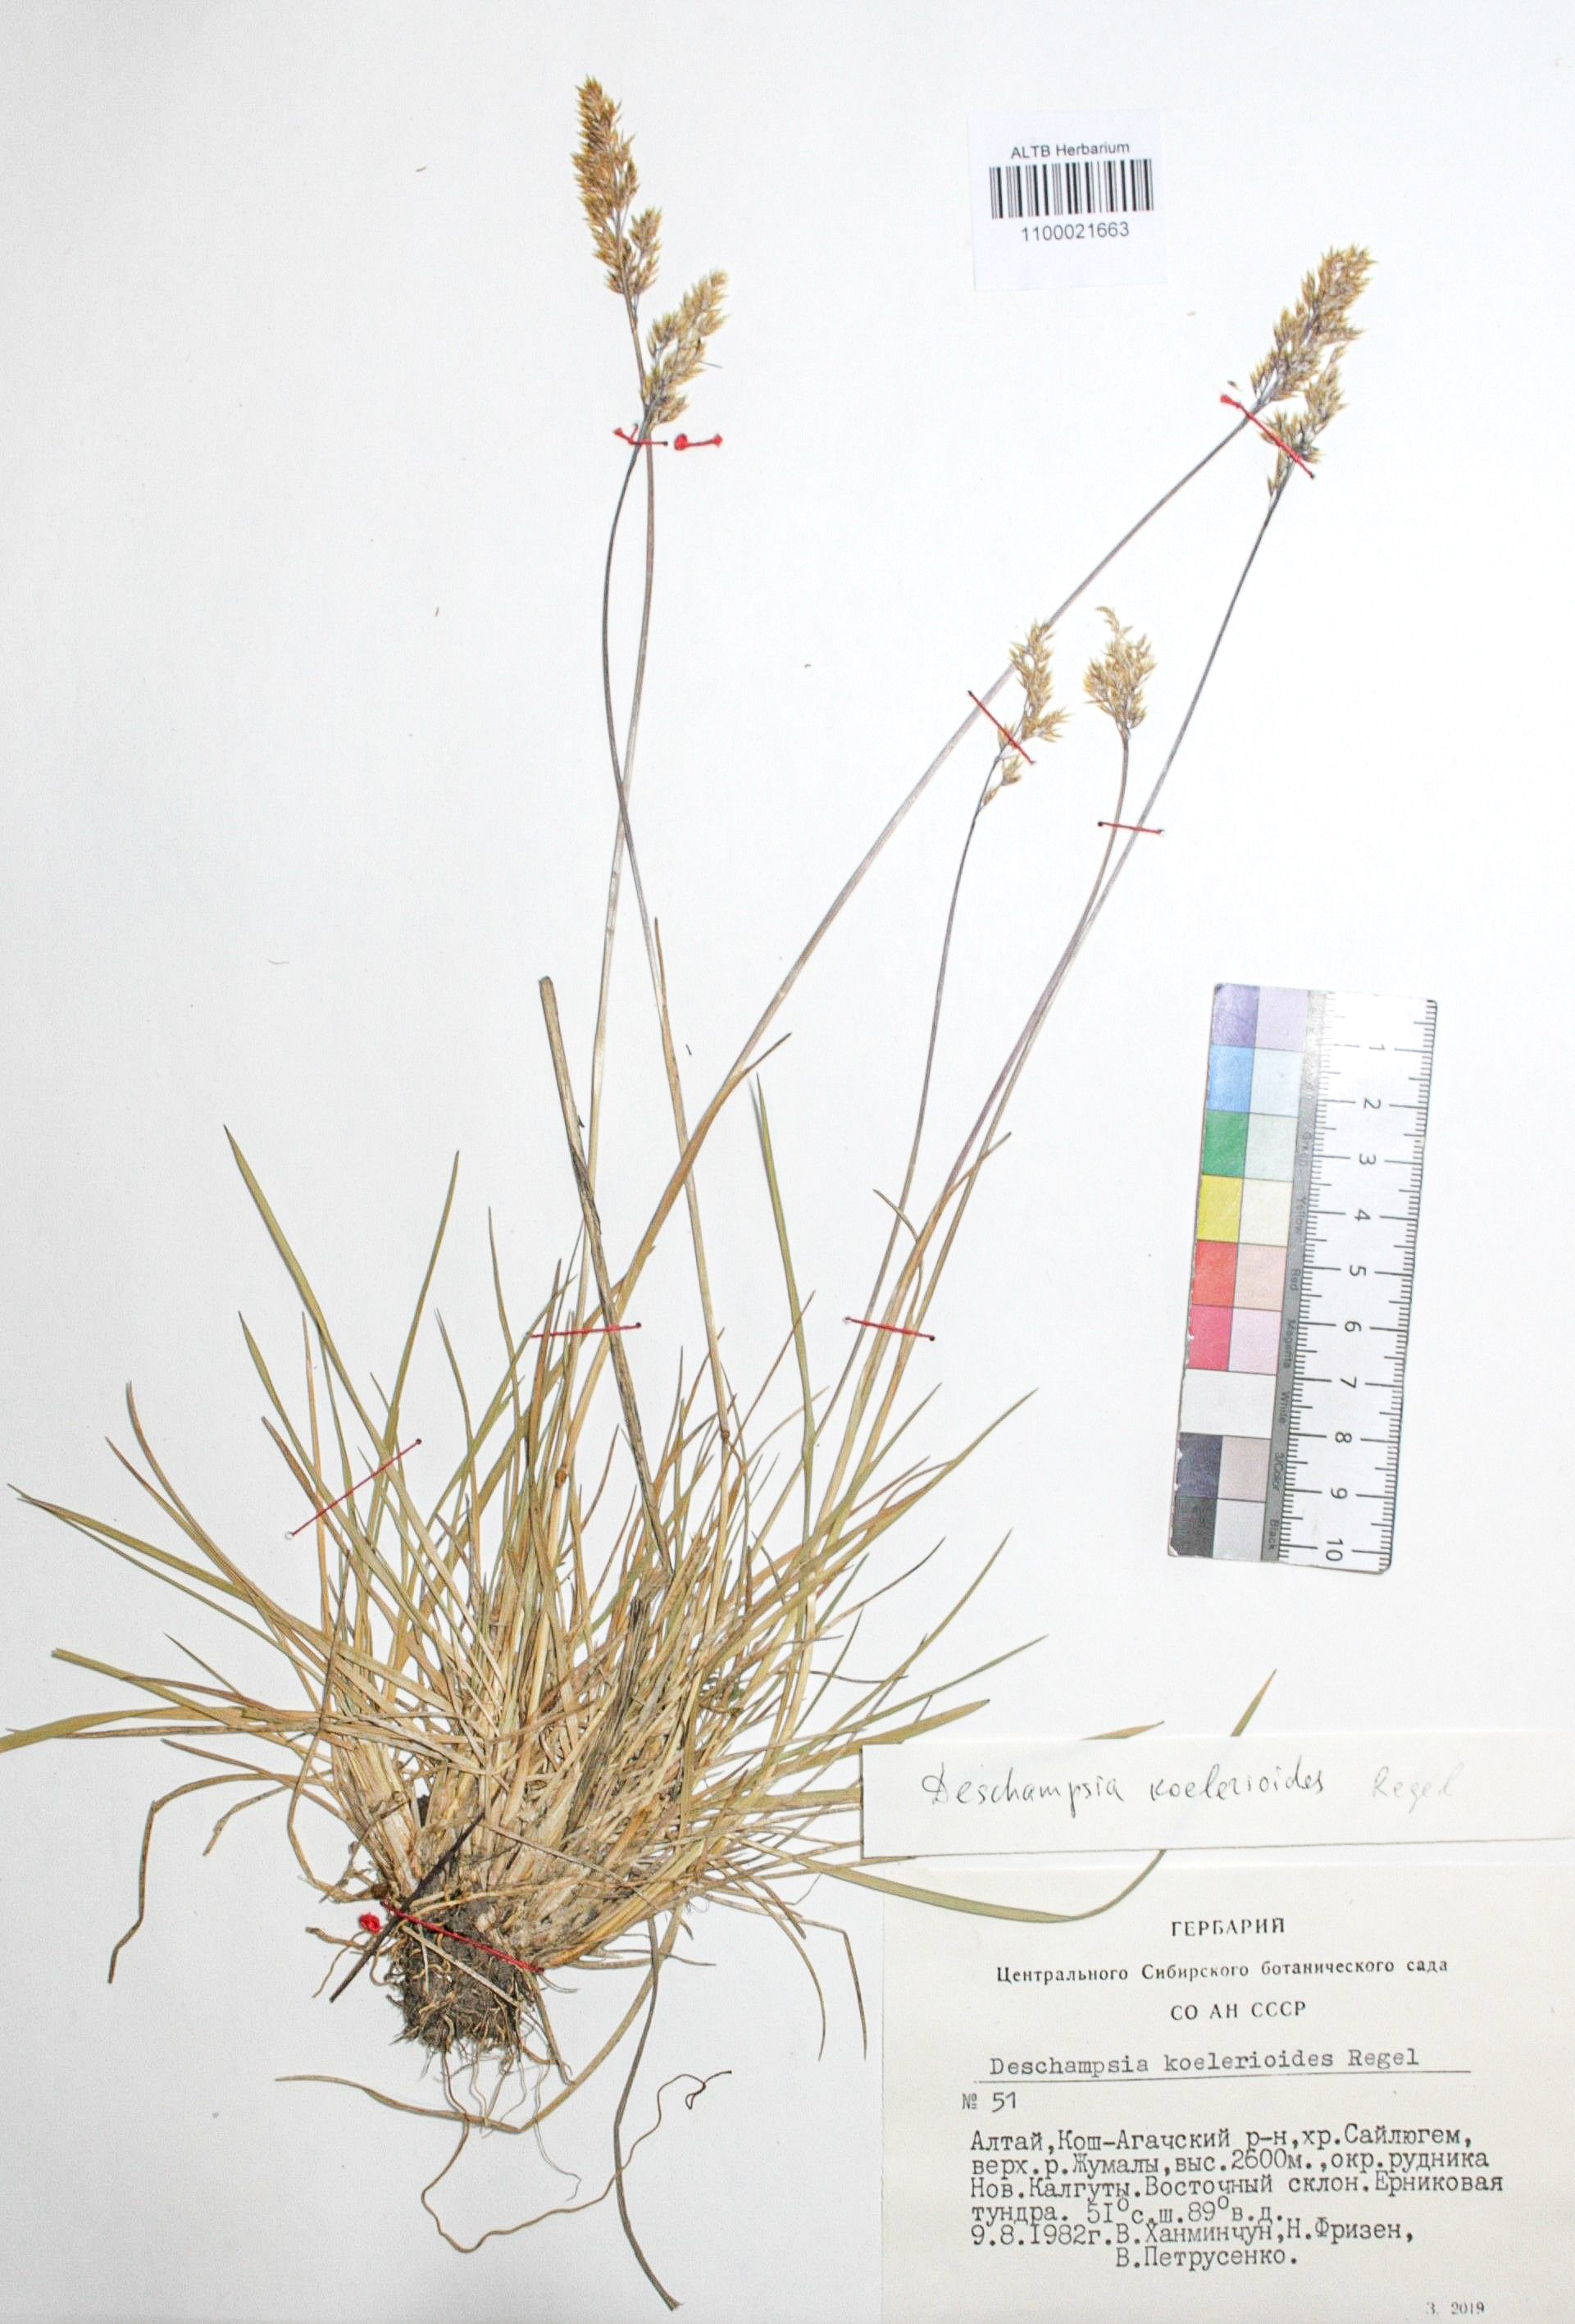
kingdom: Plantae
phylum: Tracheophyta
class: Liliopsida
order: Poales
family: Poaceae
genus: Deschampsia
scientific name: Deschampsia koelerioides
